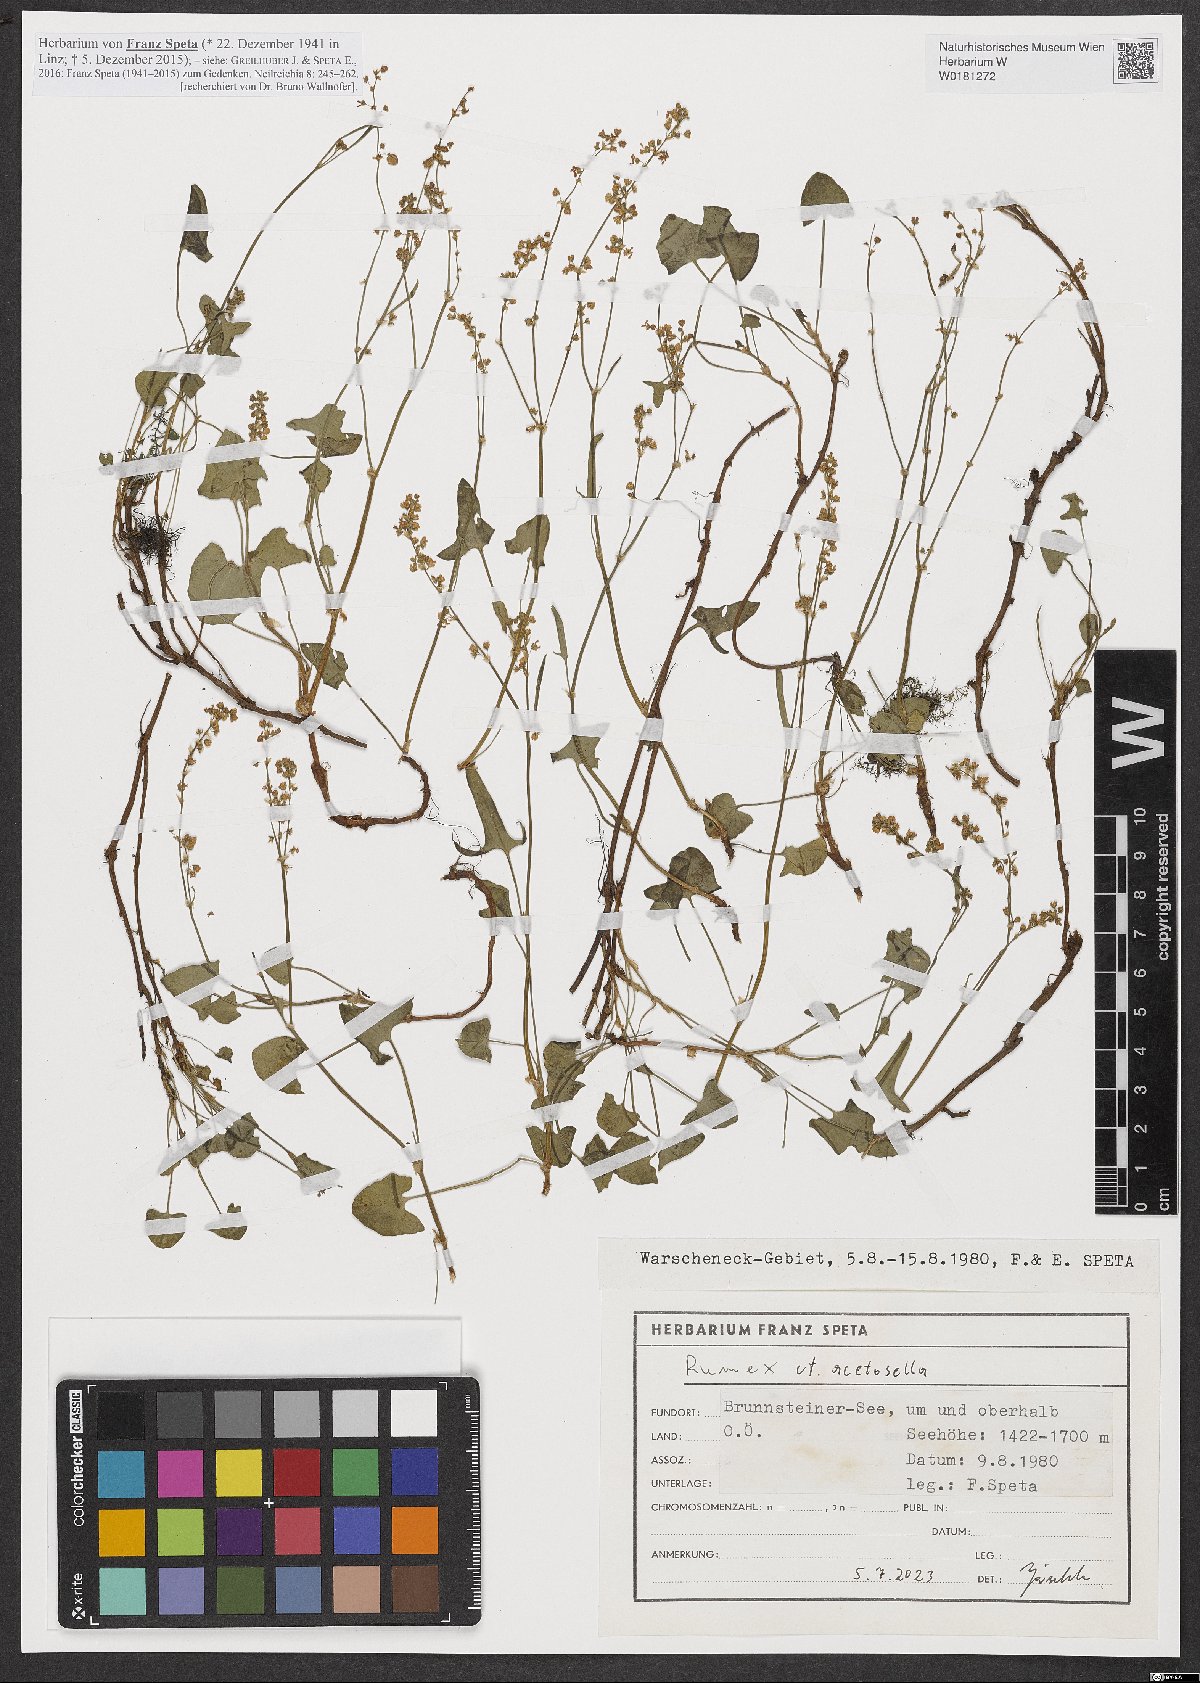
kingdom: Plantae
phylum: Tracheophyta
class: Magnoliopsida
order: Caryophyllales
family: Polygonaceae
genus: Rumex
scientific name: Rumex acetosella
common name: Common sheep sorrel
